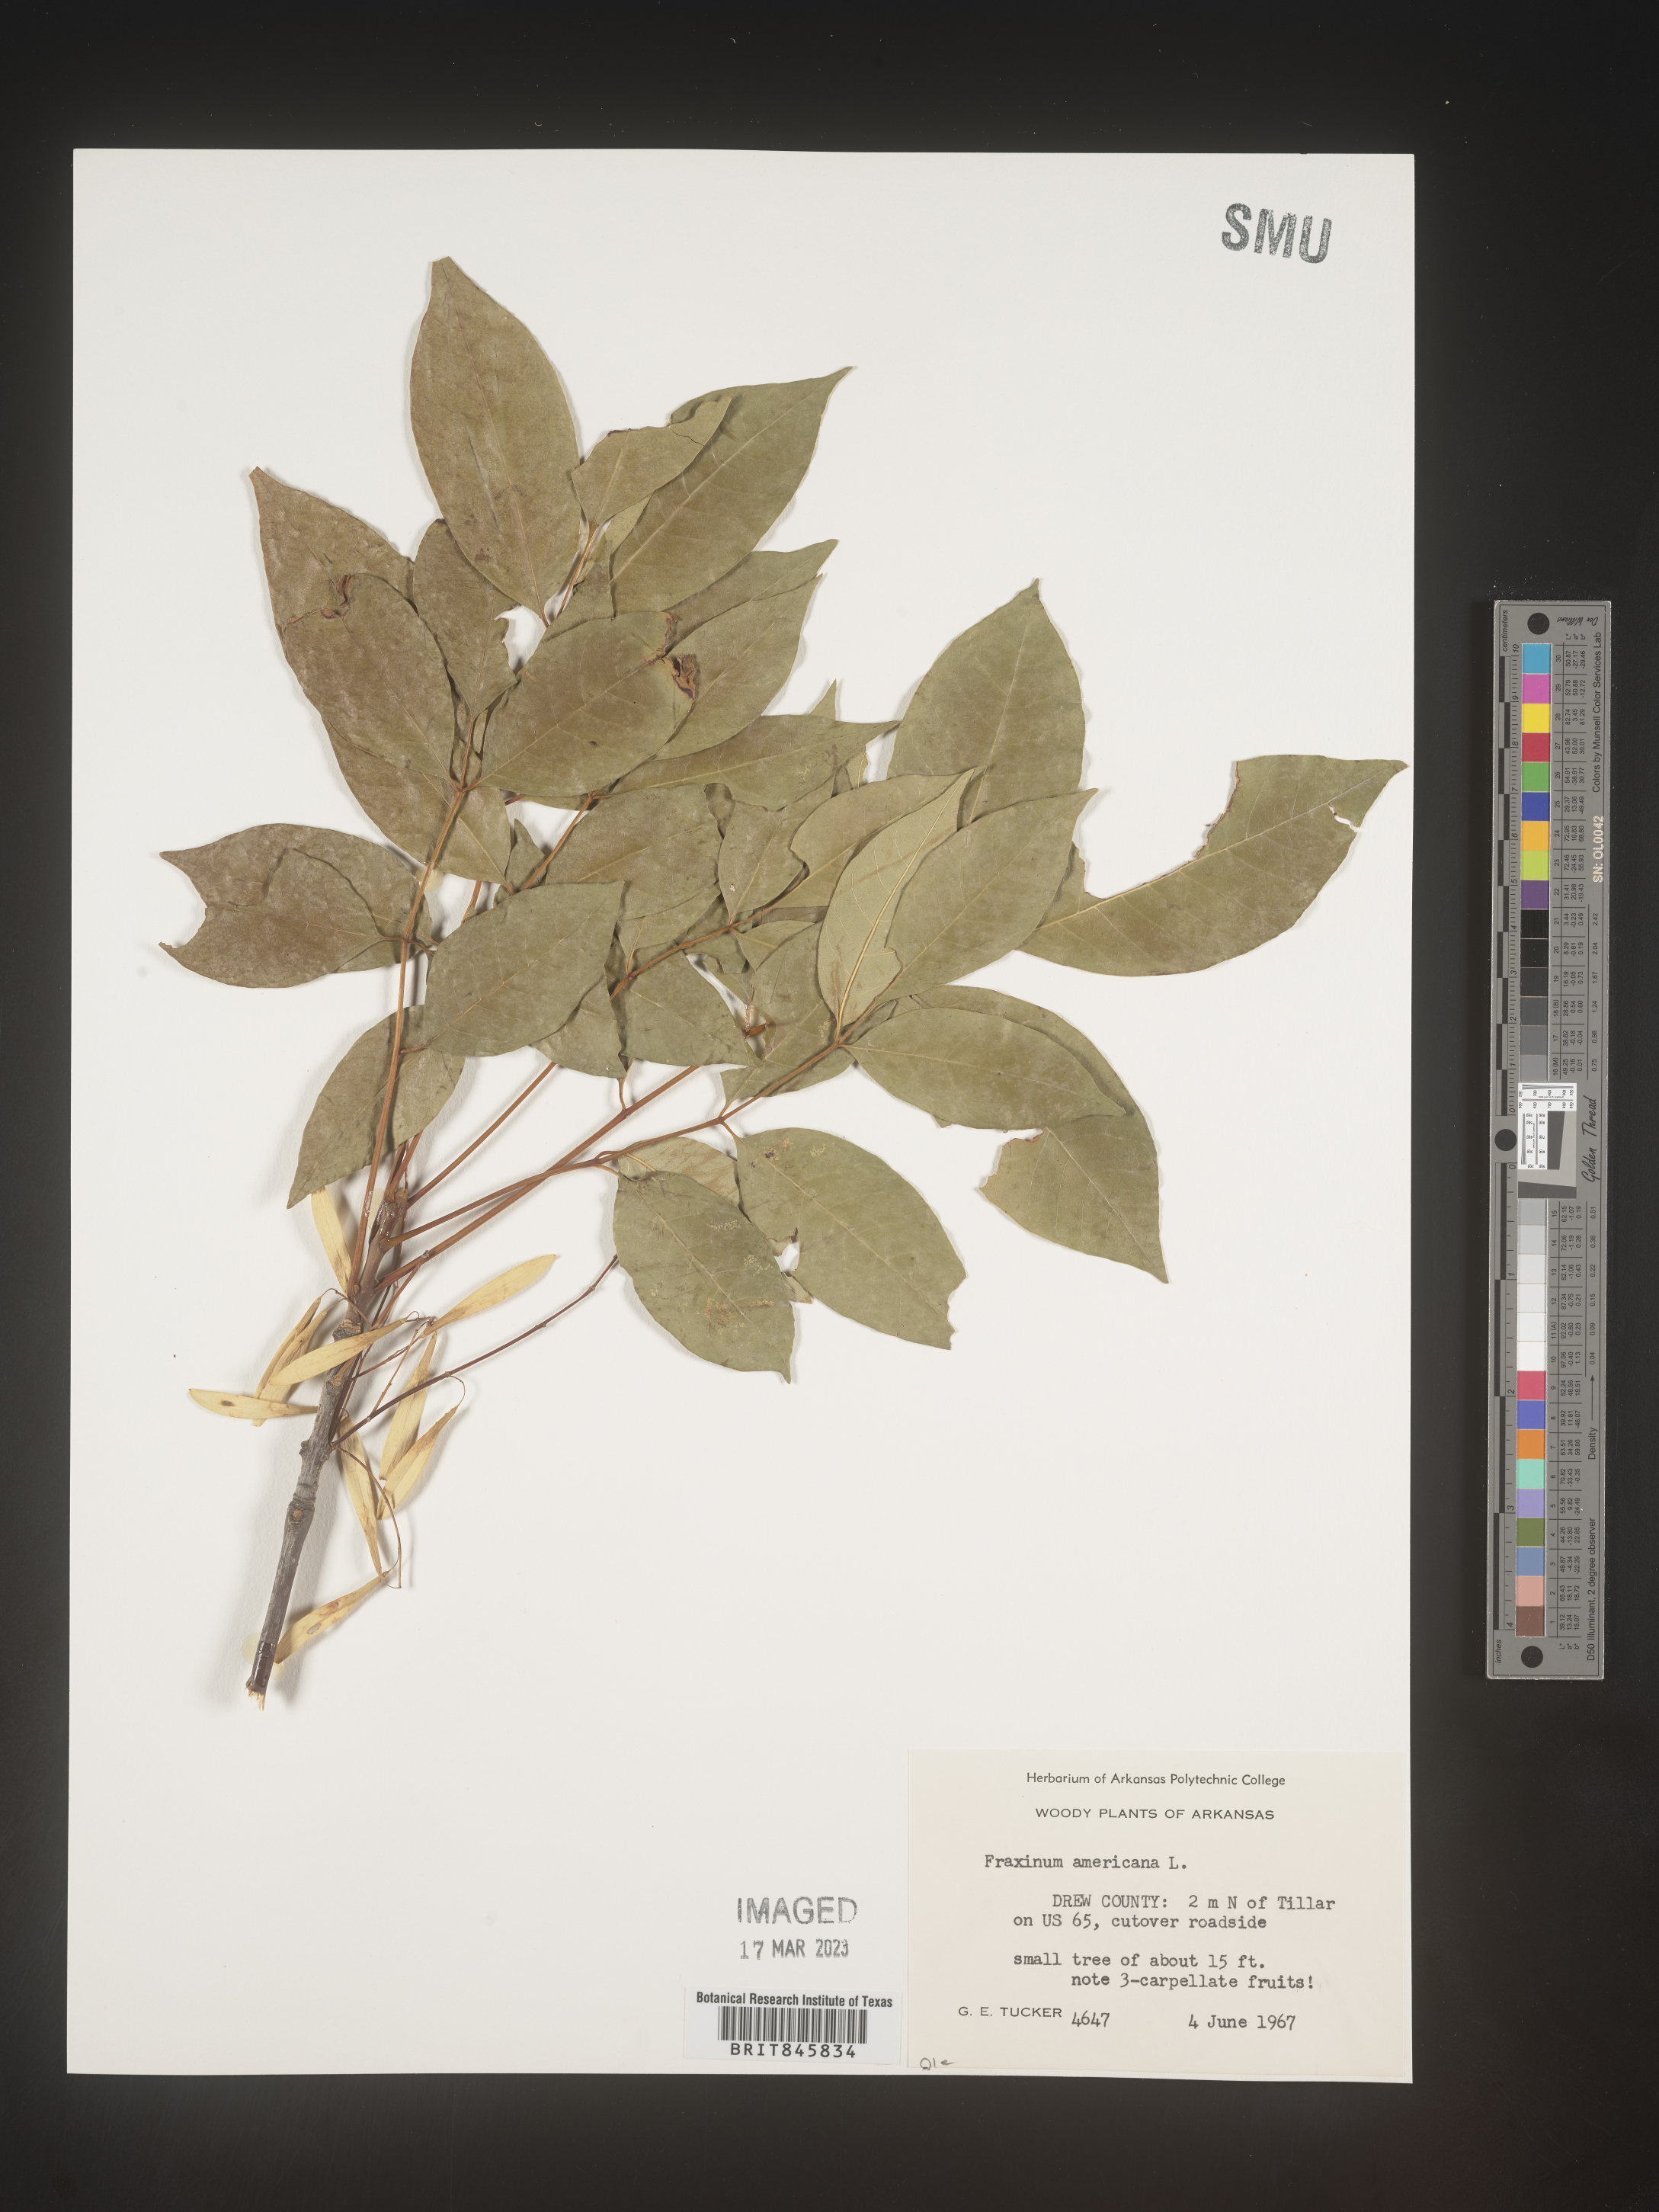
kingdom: Plantae
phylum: Tracheophyta
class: Magnoliopsida
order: Lamiales
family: Oleaceae
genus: Fraxinus
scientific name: Fraxinus americana
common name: White ash
